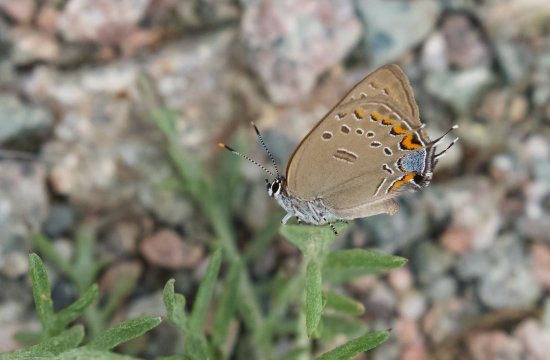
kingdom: Animalia
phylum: Arthropoda
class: Insecta
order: Lepidoptera
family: Lycaenidae
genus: Satyrium
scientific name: Satyrium edwardsii
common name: Edwards' Hairstreak
